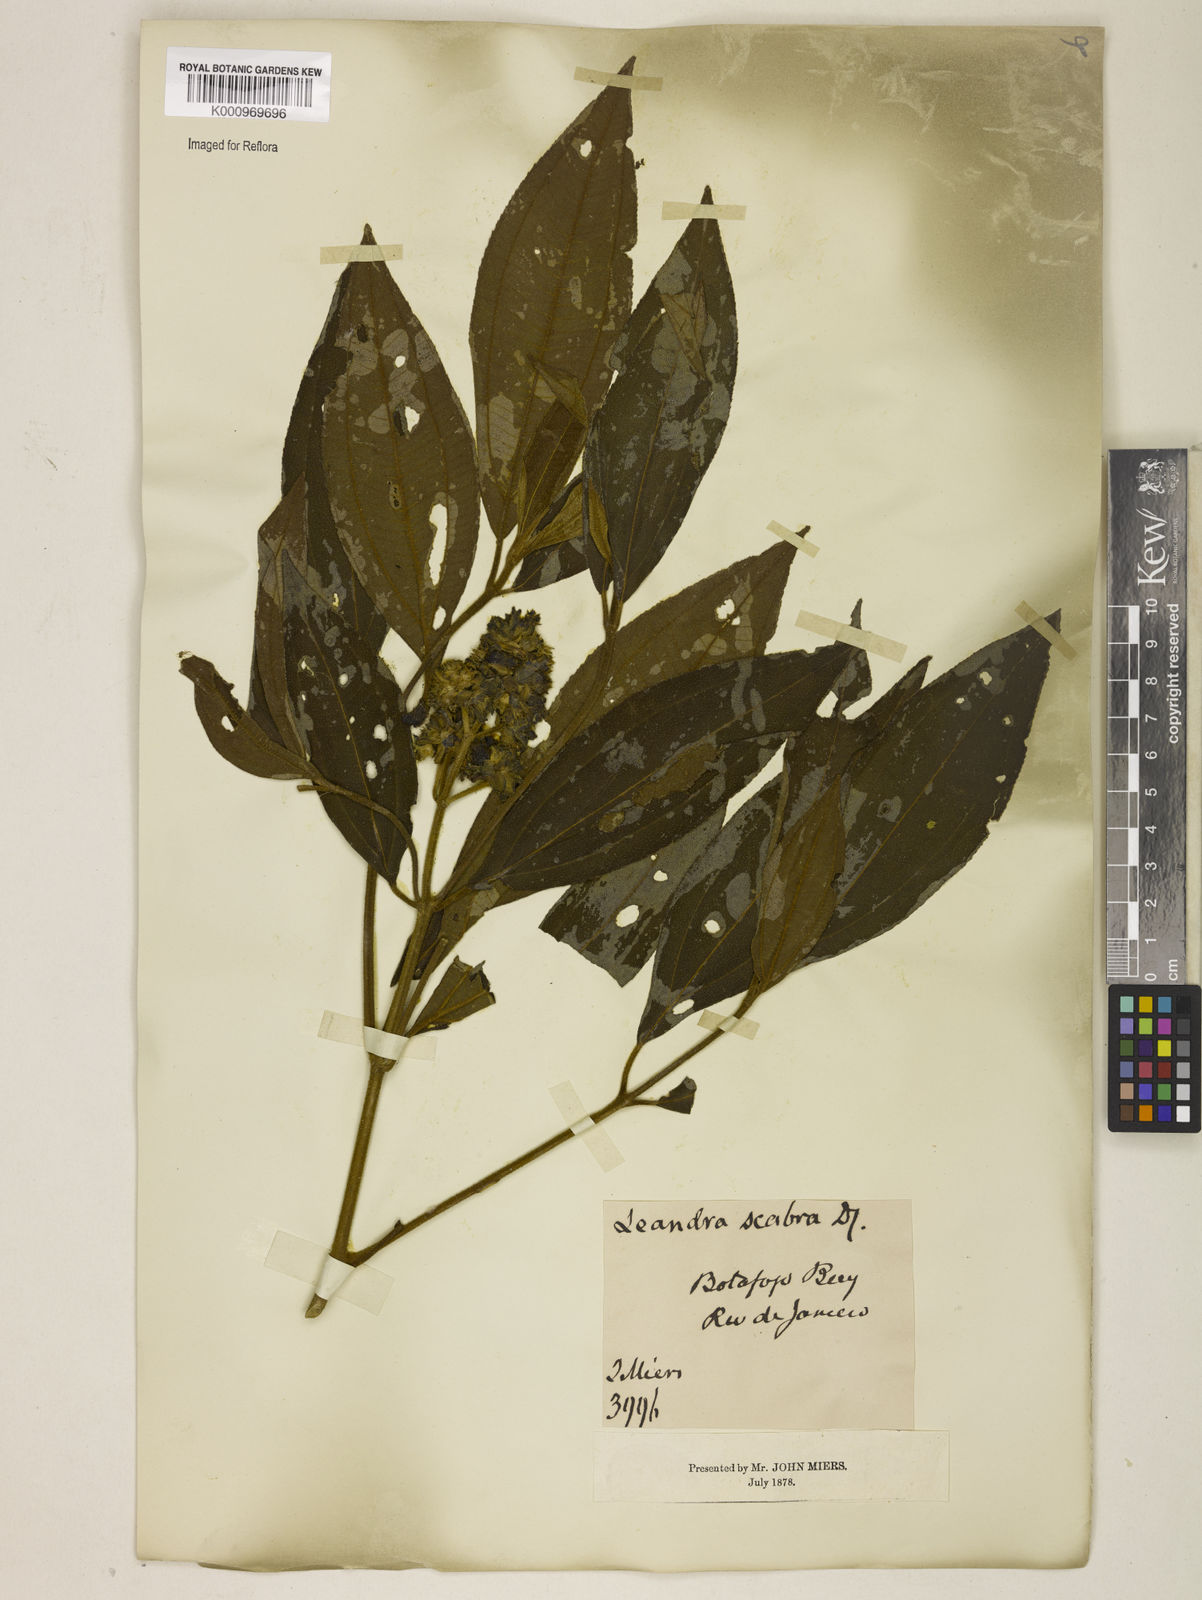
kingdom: Plantae
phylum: Tracheophyta
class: Magnoliopsida
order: Myrtales
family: Melastomataceae
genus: Miconia
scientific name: Miconia melastomoides
